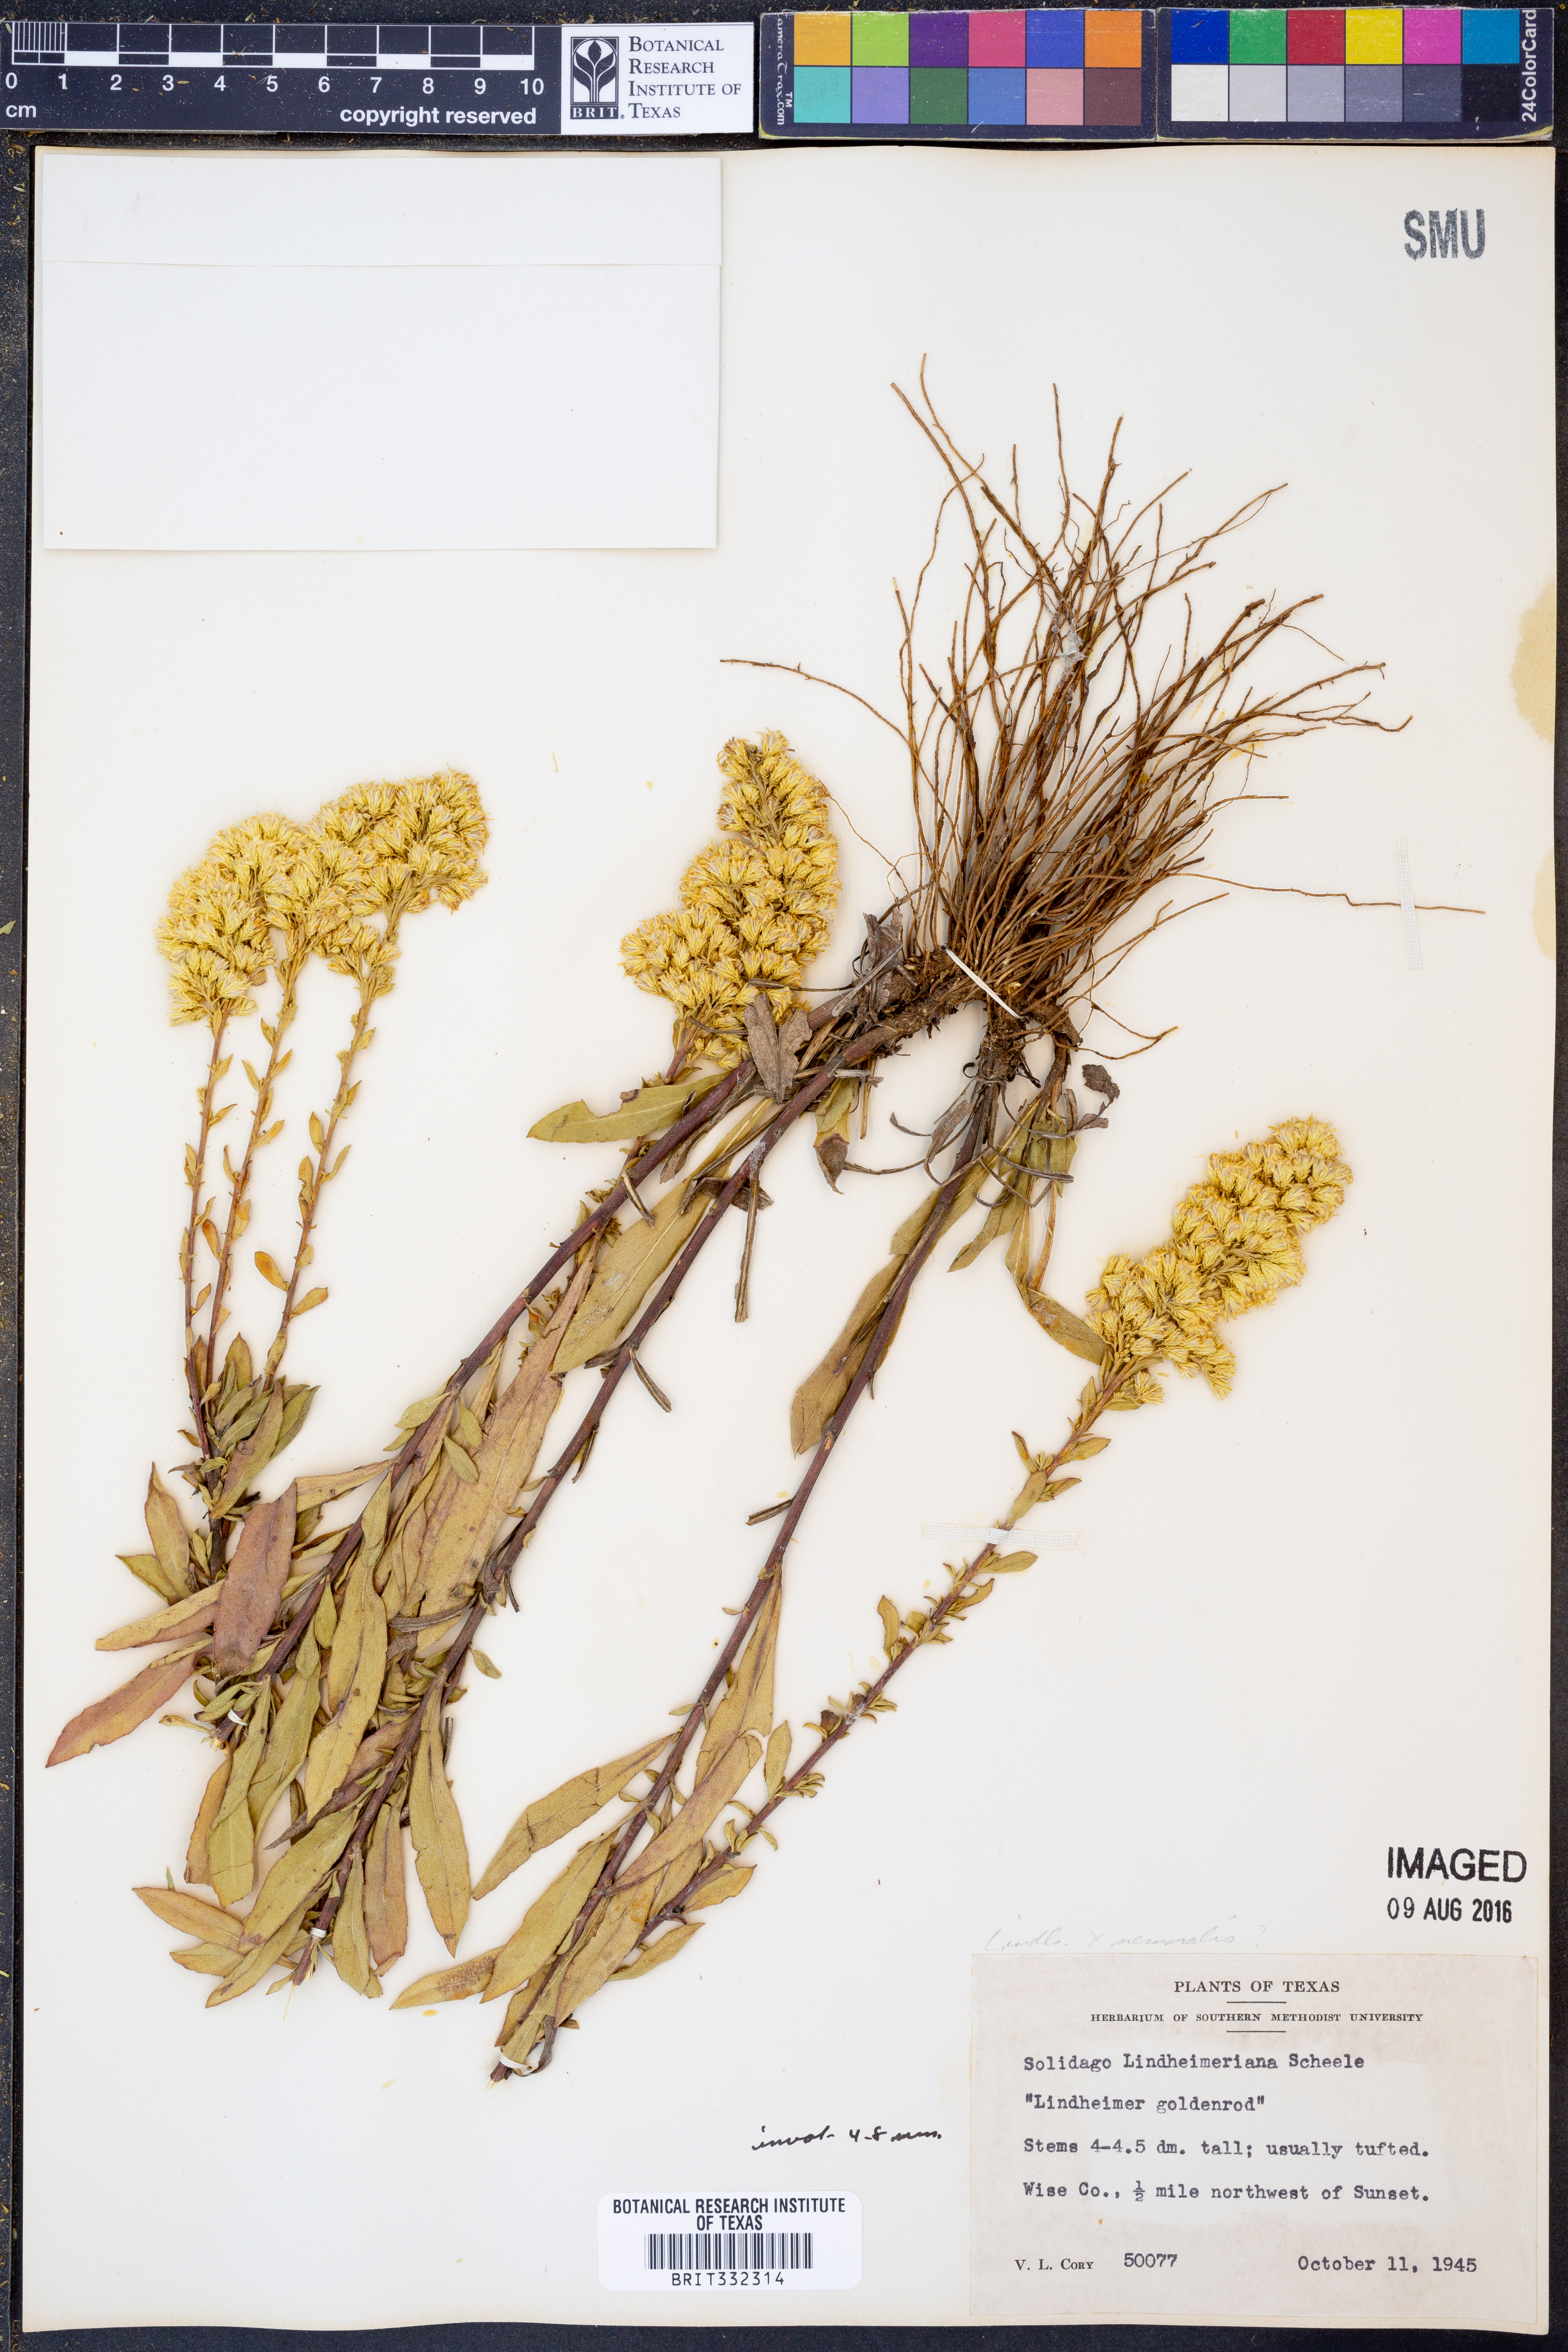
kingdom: Plantae
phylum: Tracheophyta
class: Magnoliopsida
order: Asterales
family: Asteraceae
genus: Solidago
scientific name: Solidago petiolaris
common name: Downy ragged goldenrod
